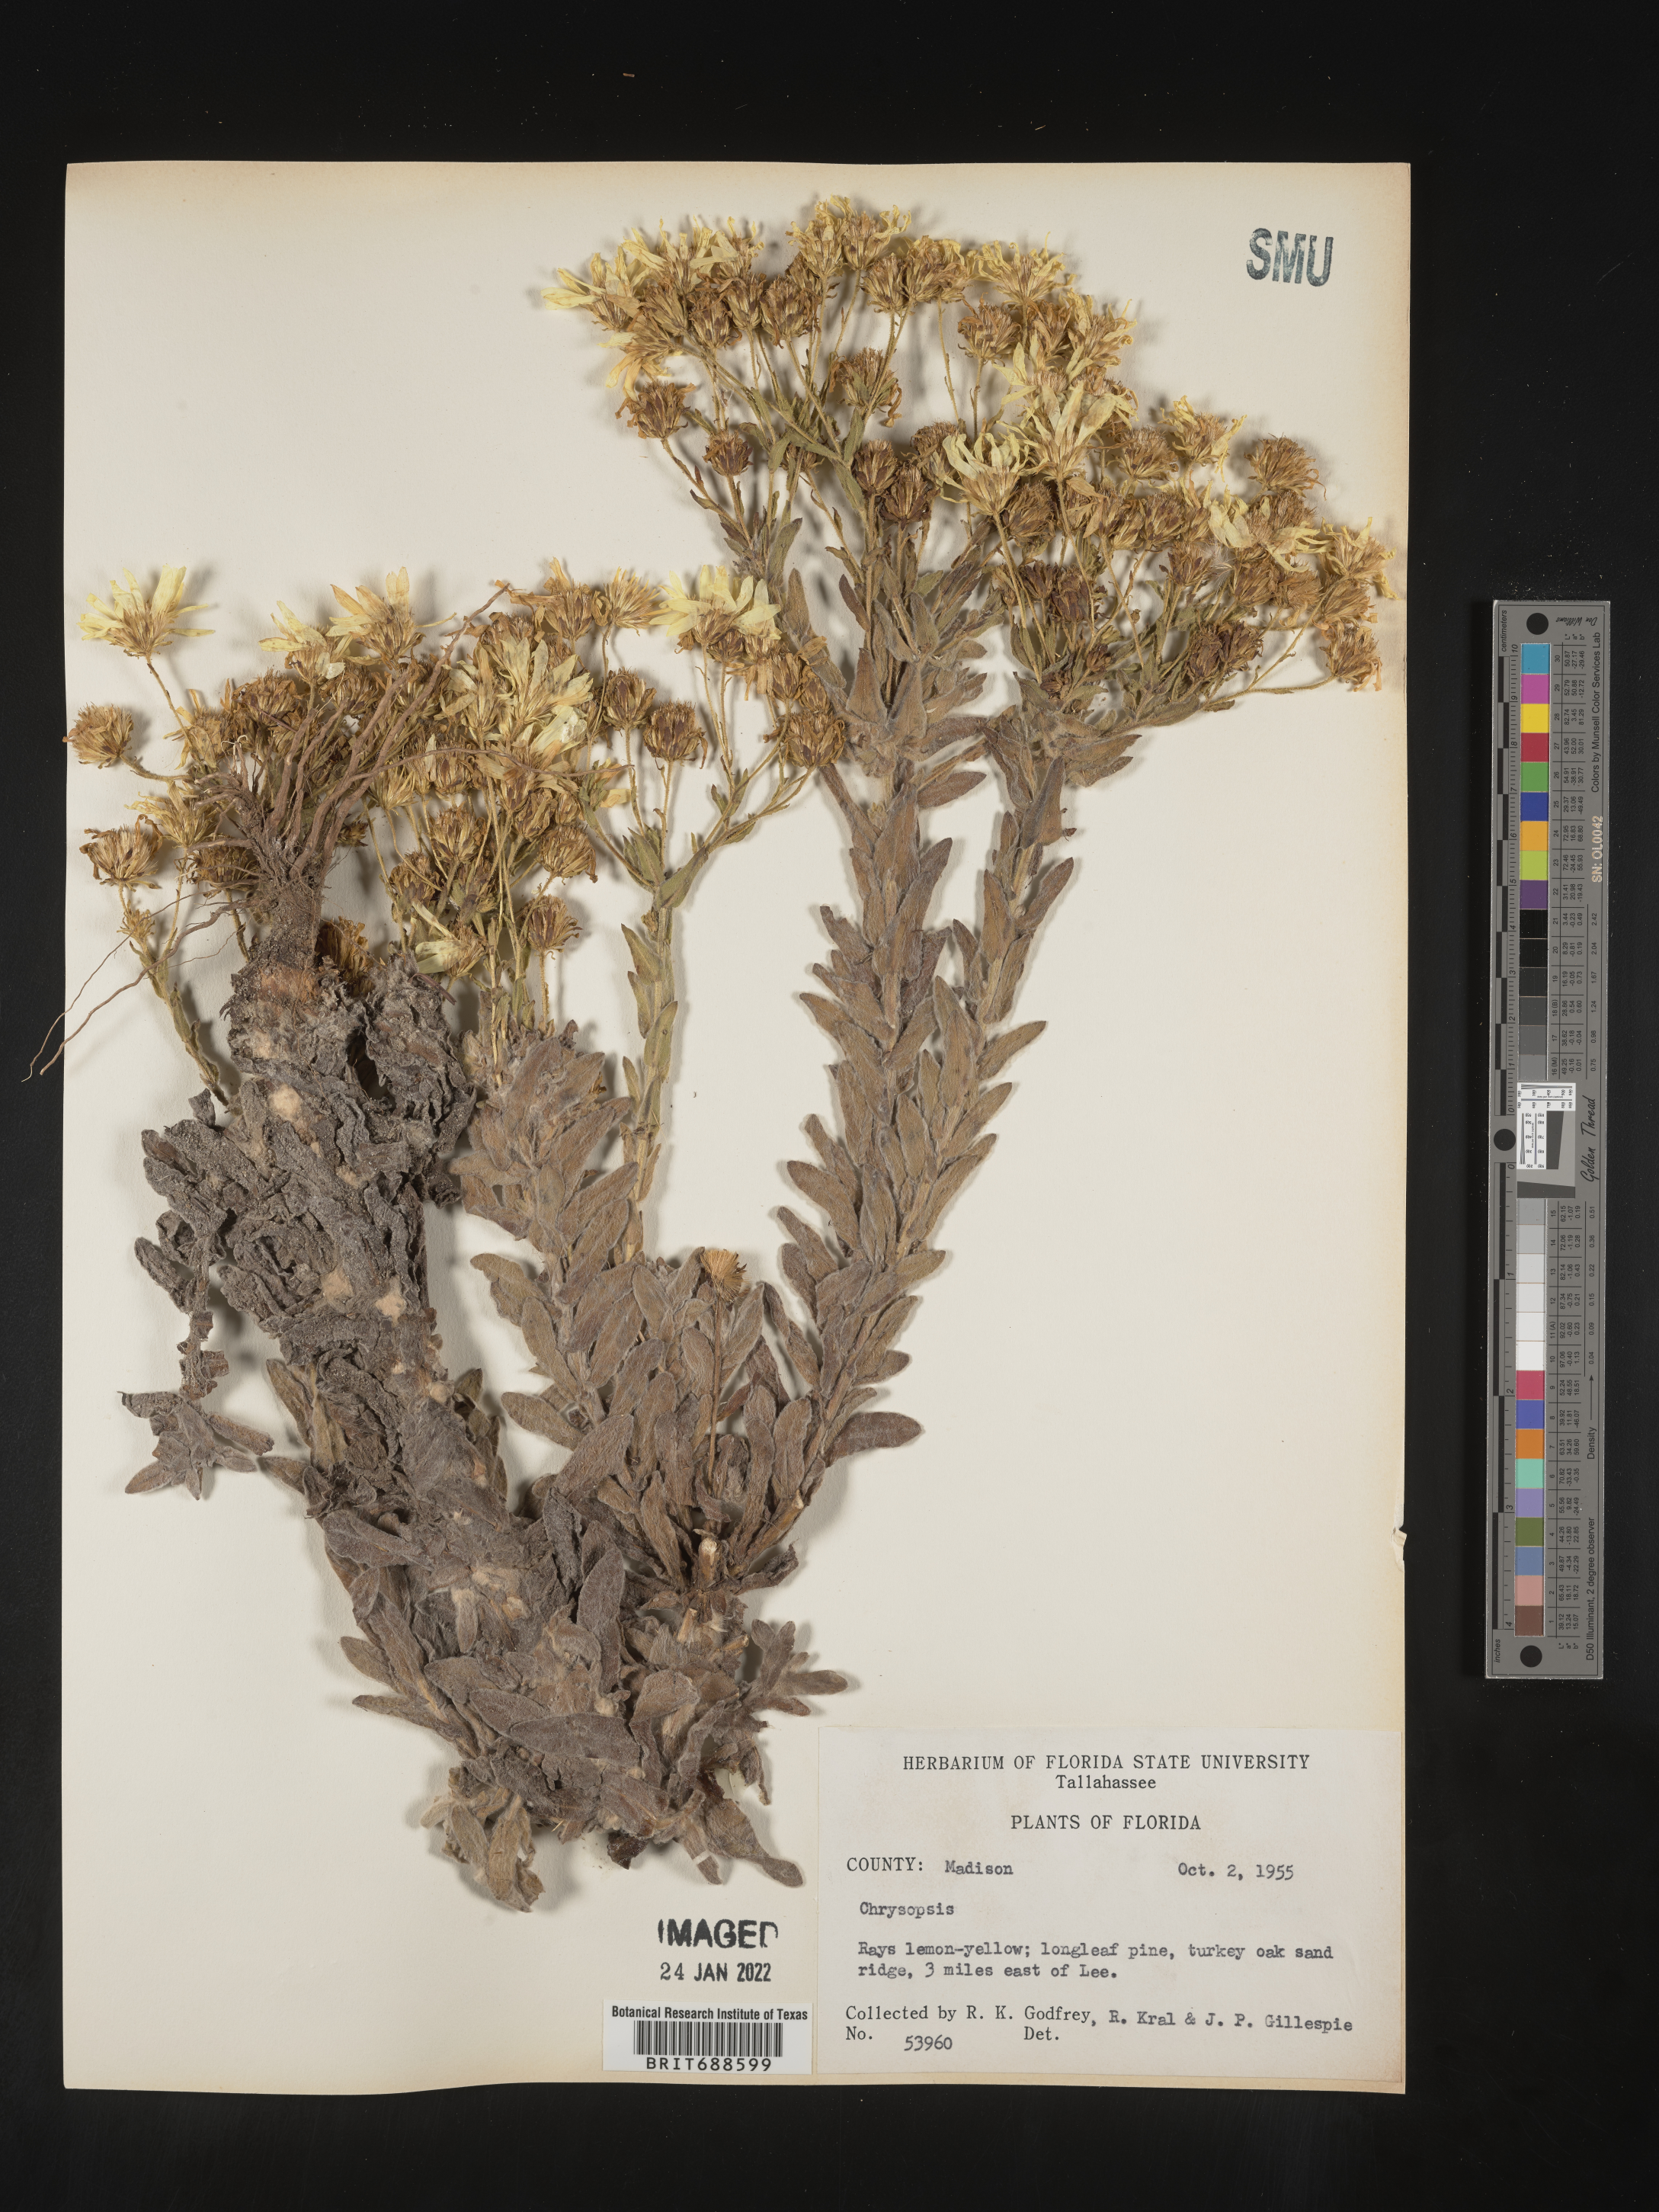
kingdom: Plantae
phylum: Tracheophyta
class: Magnoliopsida
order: Asterales
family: Asteraceae
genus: Chrysopsis
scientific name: Chrysopsis latisquamea
